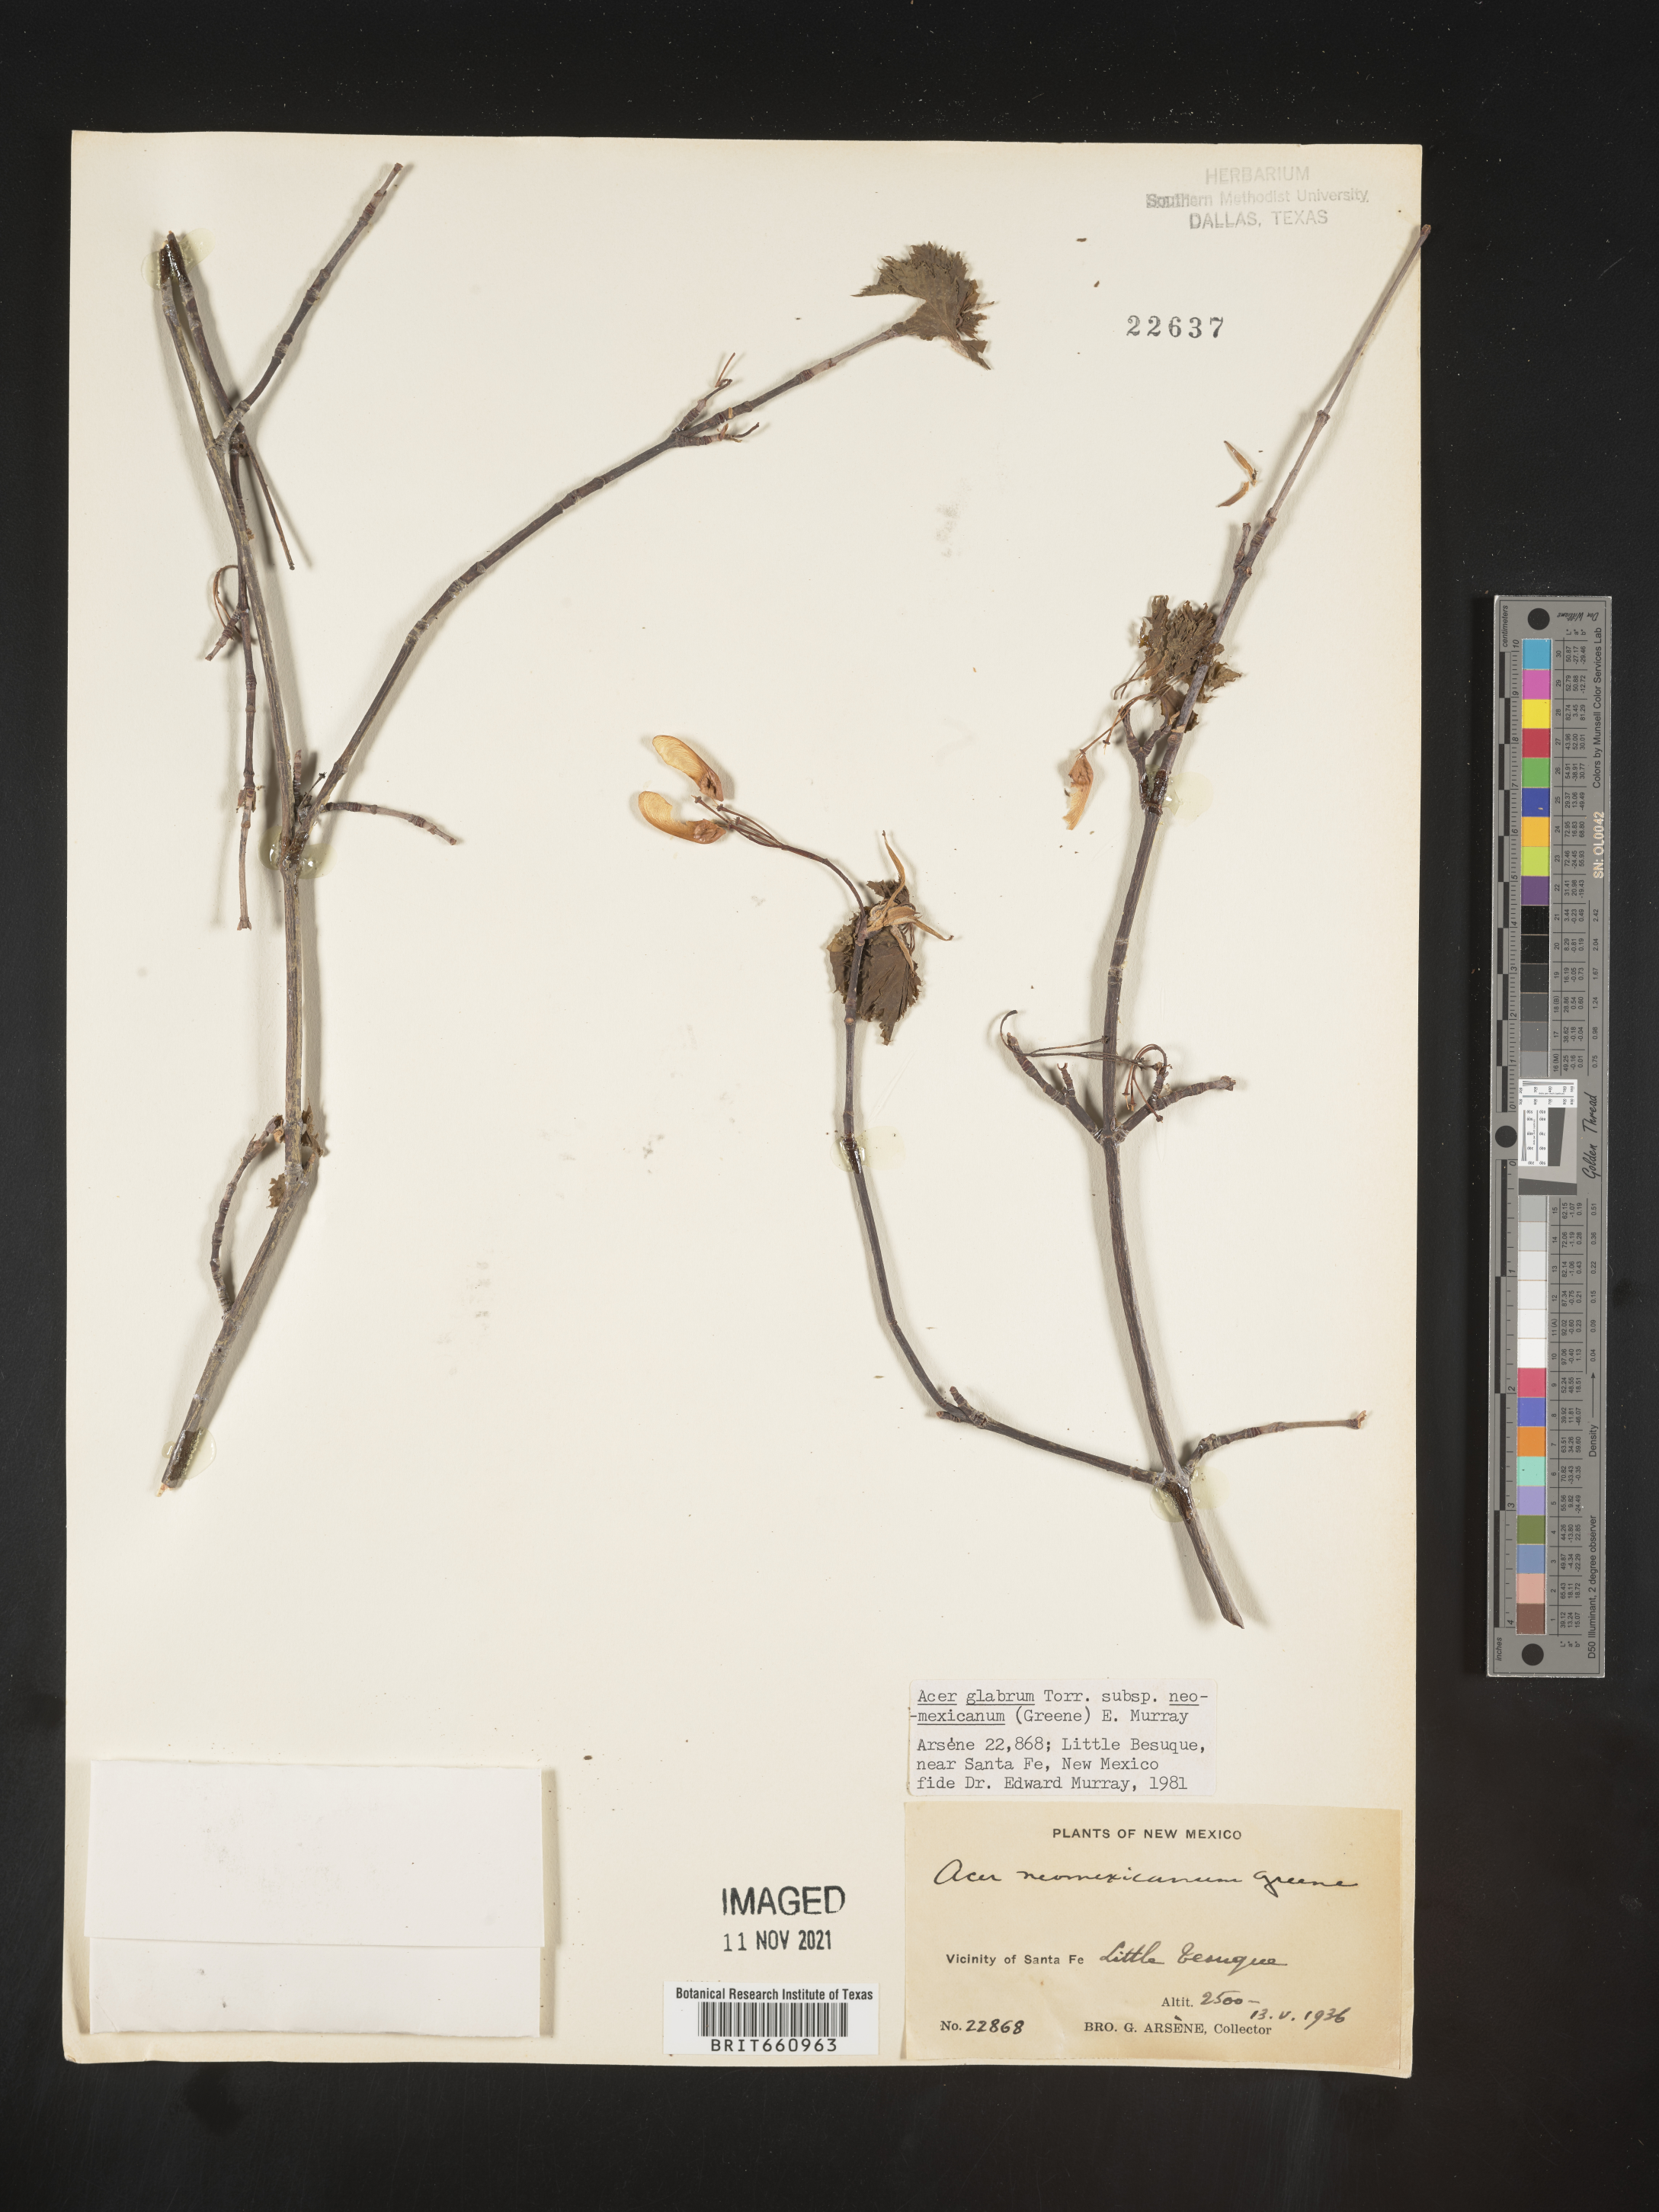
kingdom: Plantae
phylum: Tracheophyta
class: Magnoliopsida
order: Sapindales
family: Sapindaceae
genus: Acer
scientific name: Acer glabrum
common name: Rocky mountain maple
